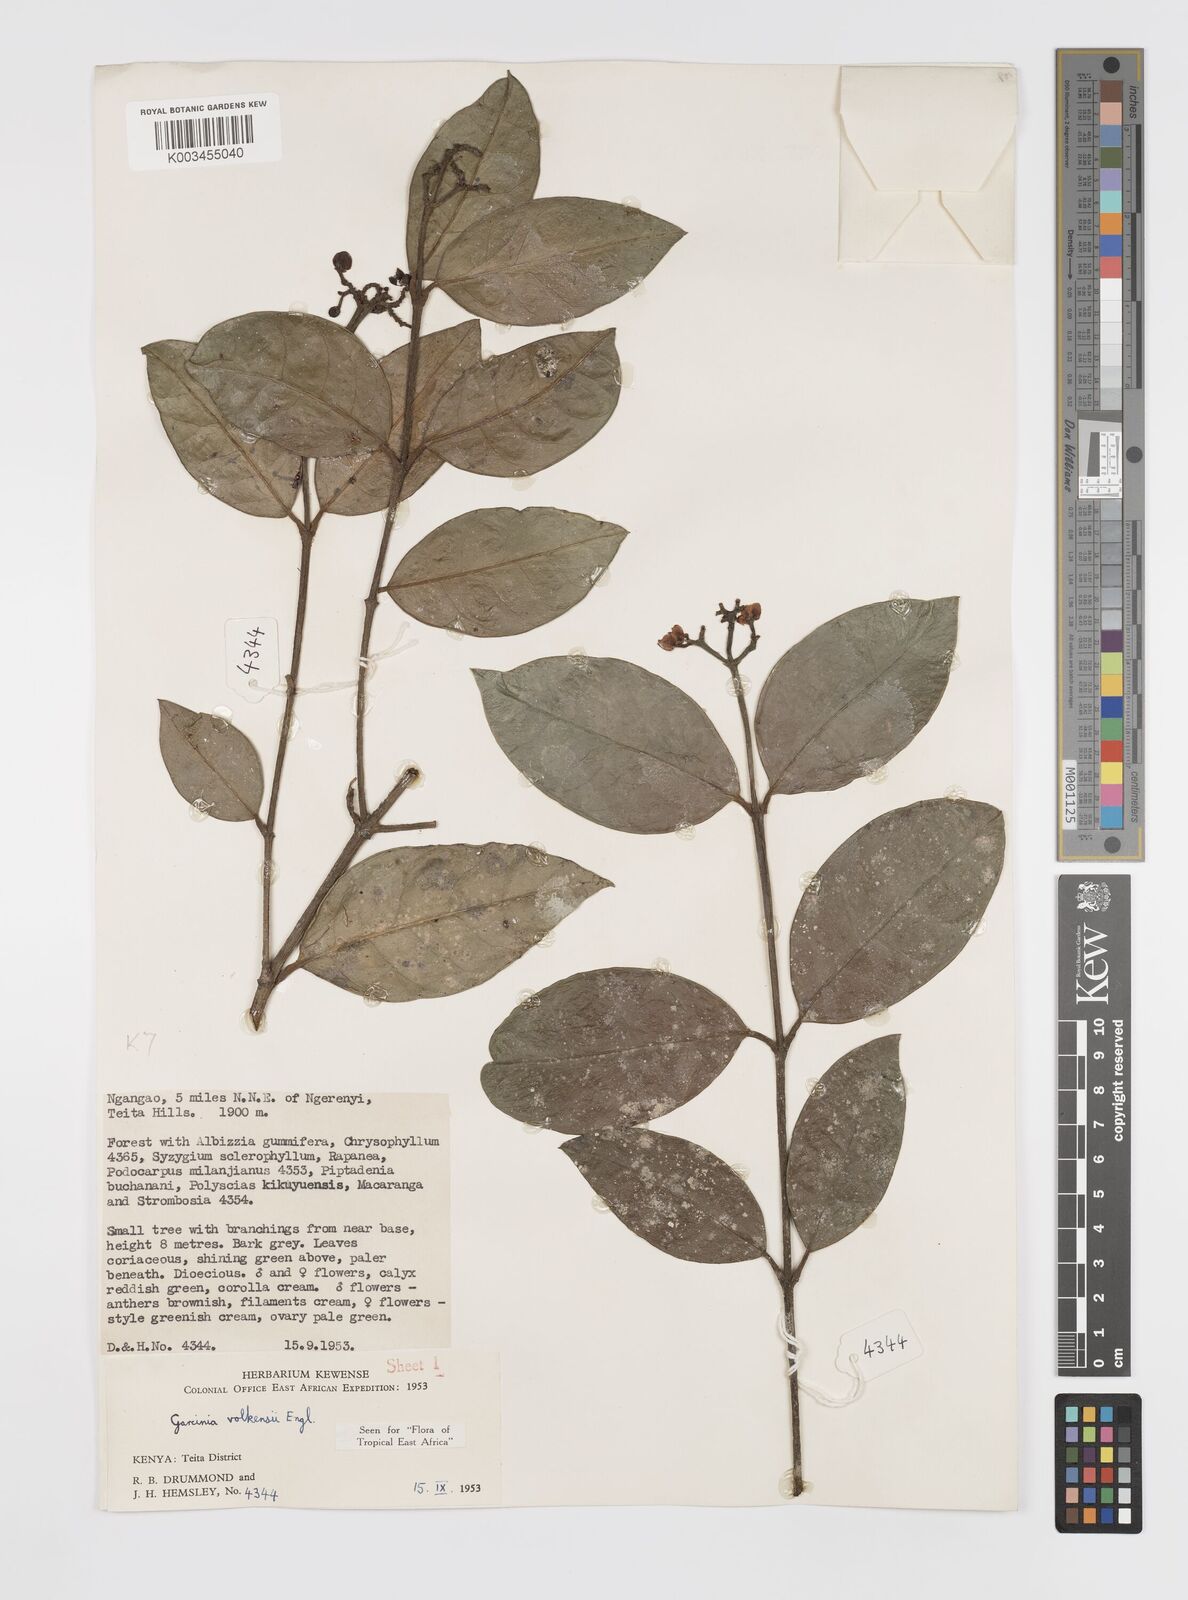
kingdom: Plantae
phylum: Tracheophyta
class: Magnoliopsida
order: Malpighiales
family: Clusiaceae
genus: Garcinia
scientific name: Garcinia volkensii
